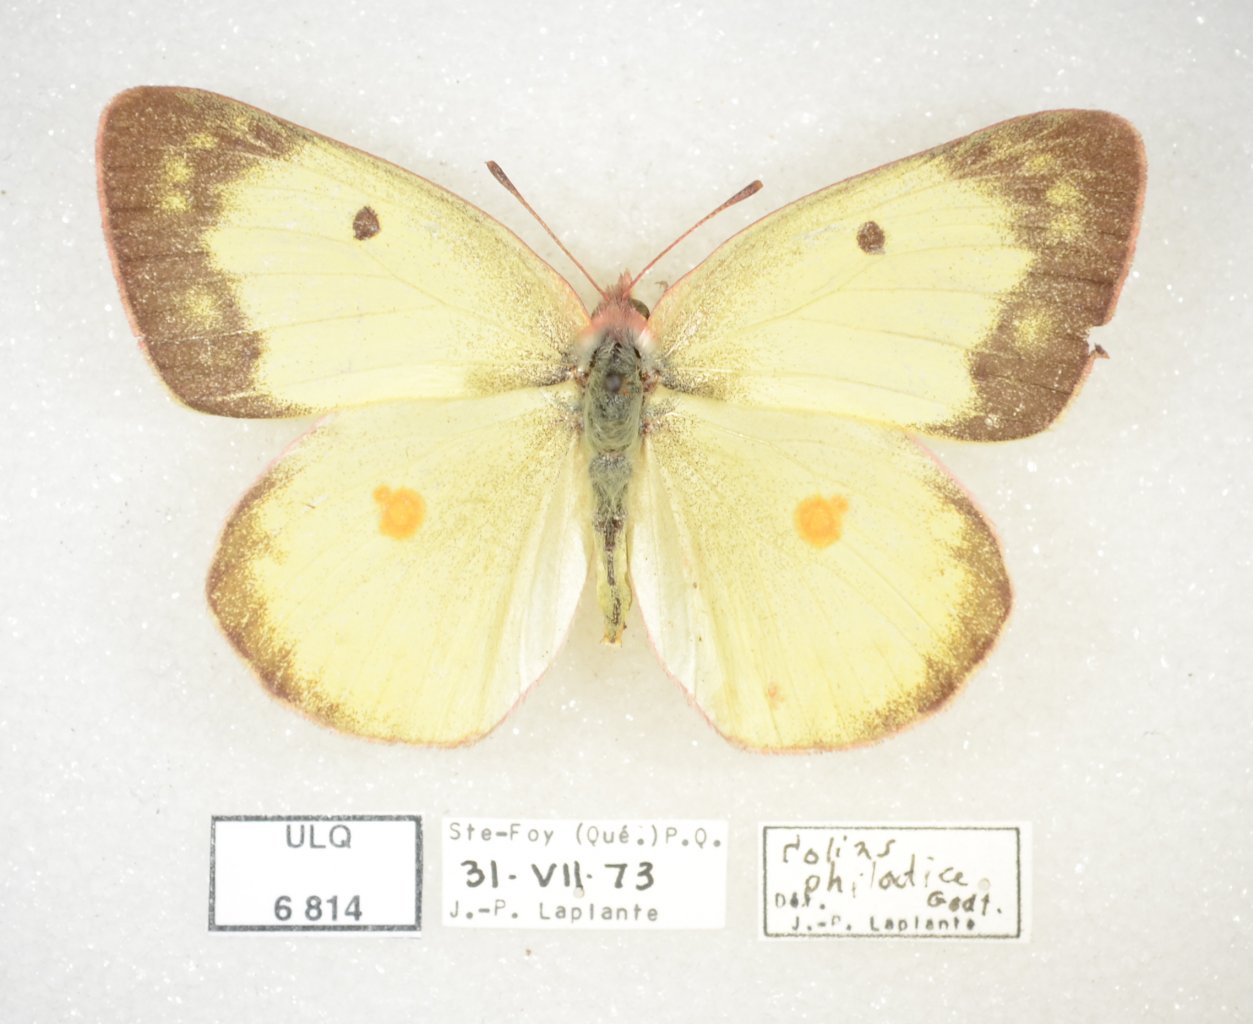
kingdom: Animalia
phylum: Arthropoda
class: Insecta
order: Lepidoptera
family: Pieridae
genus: Colias
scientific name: Colias philodice
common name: Clouded Sulphur
